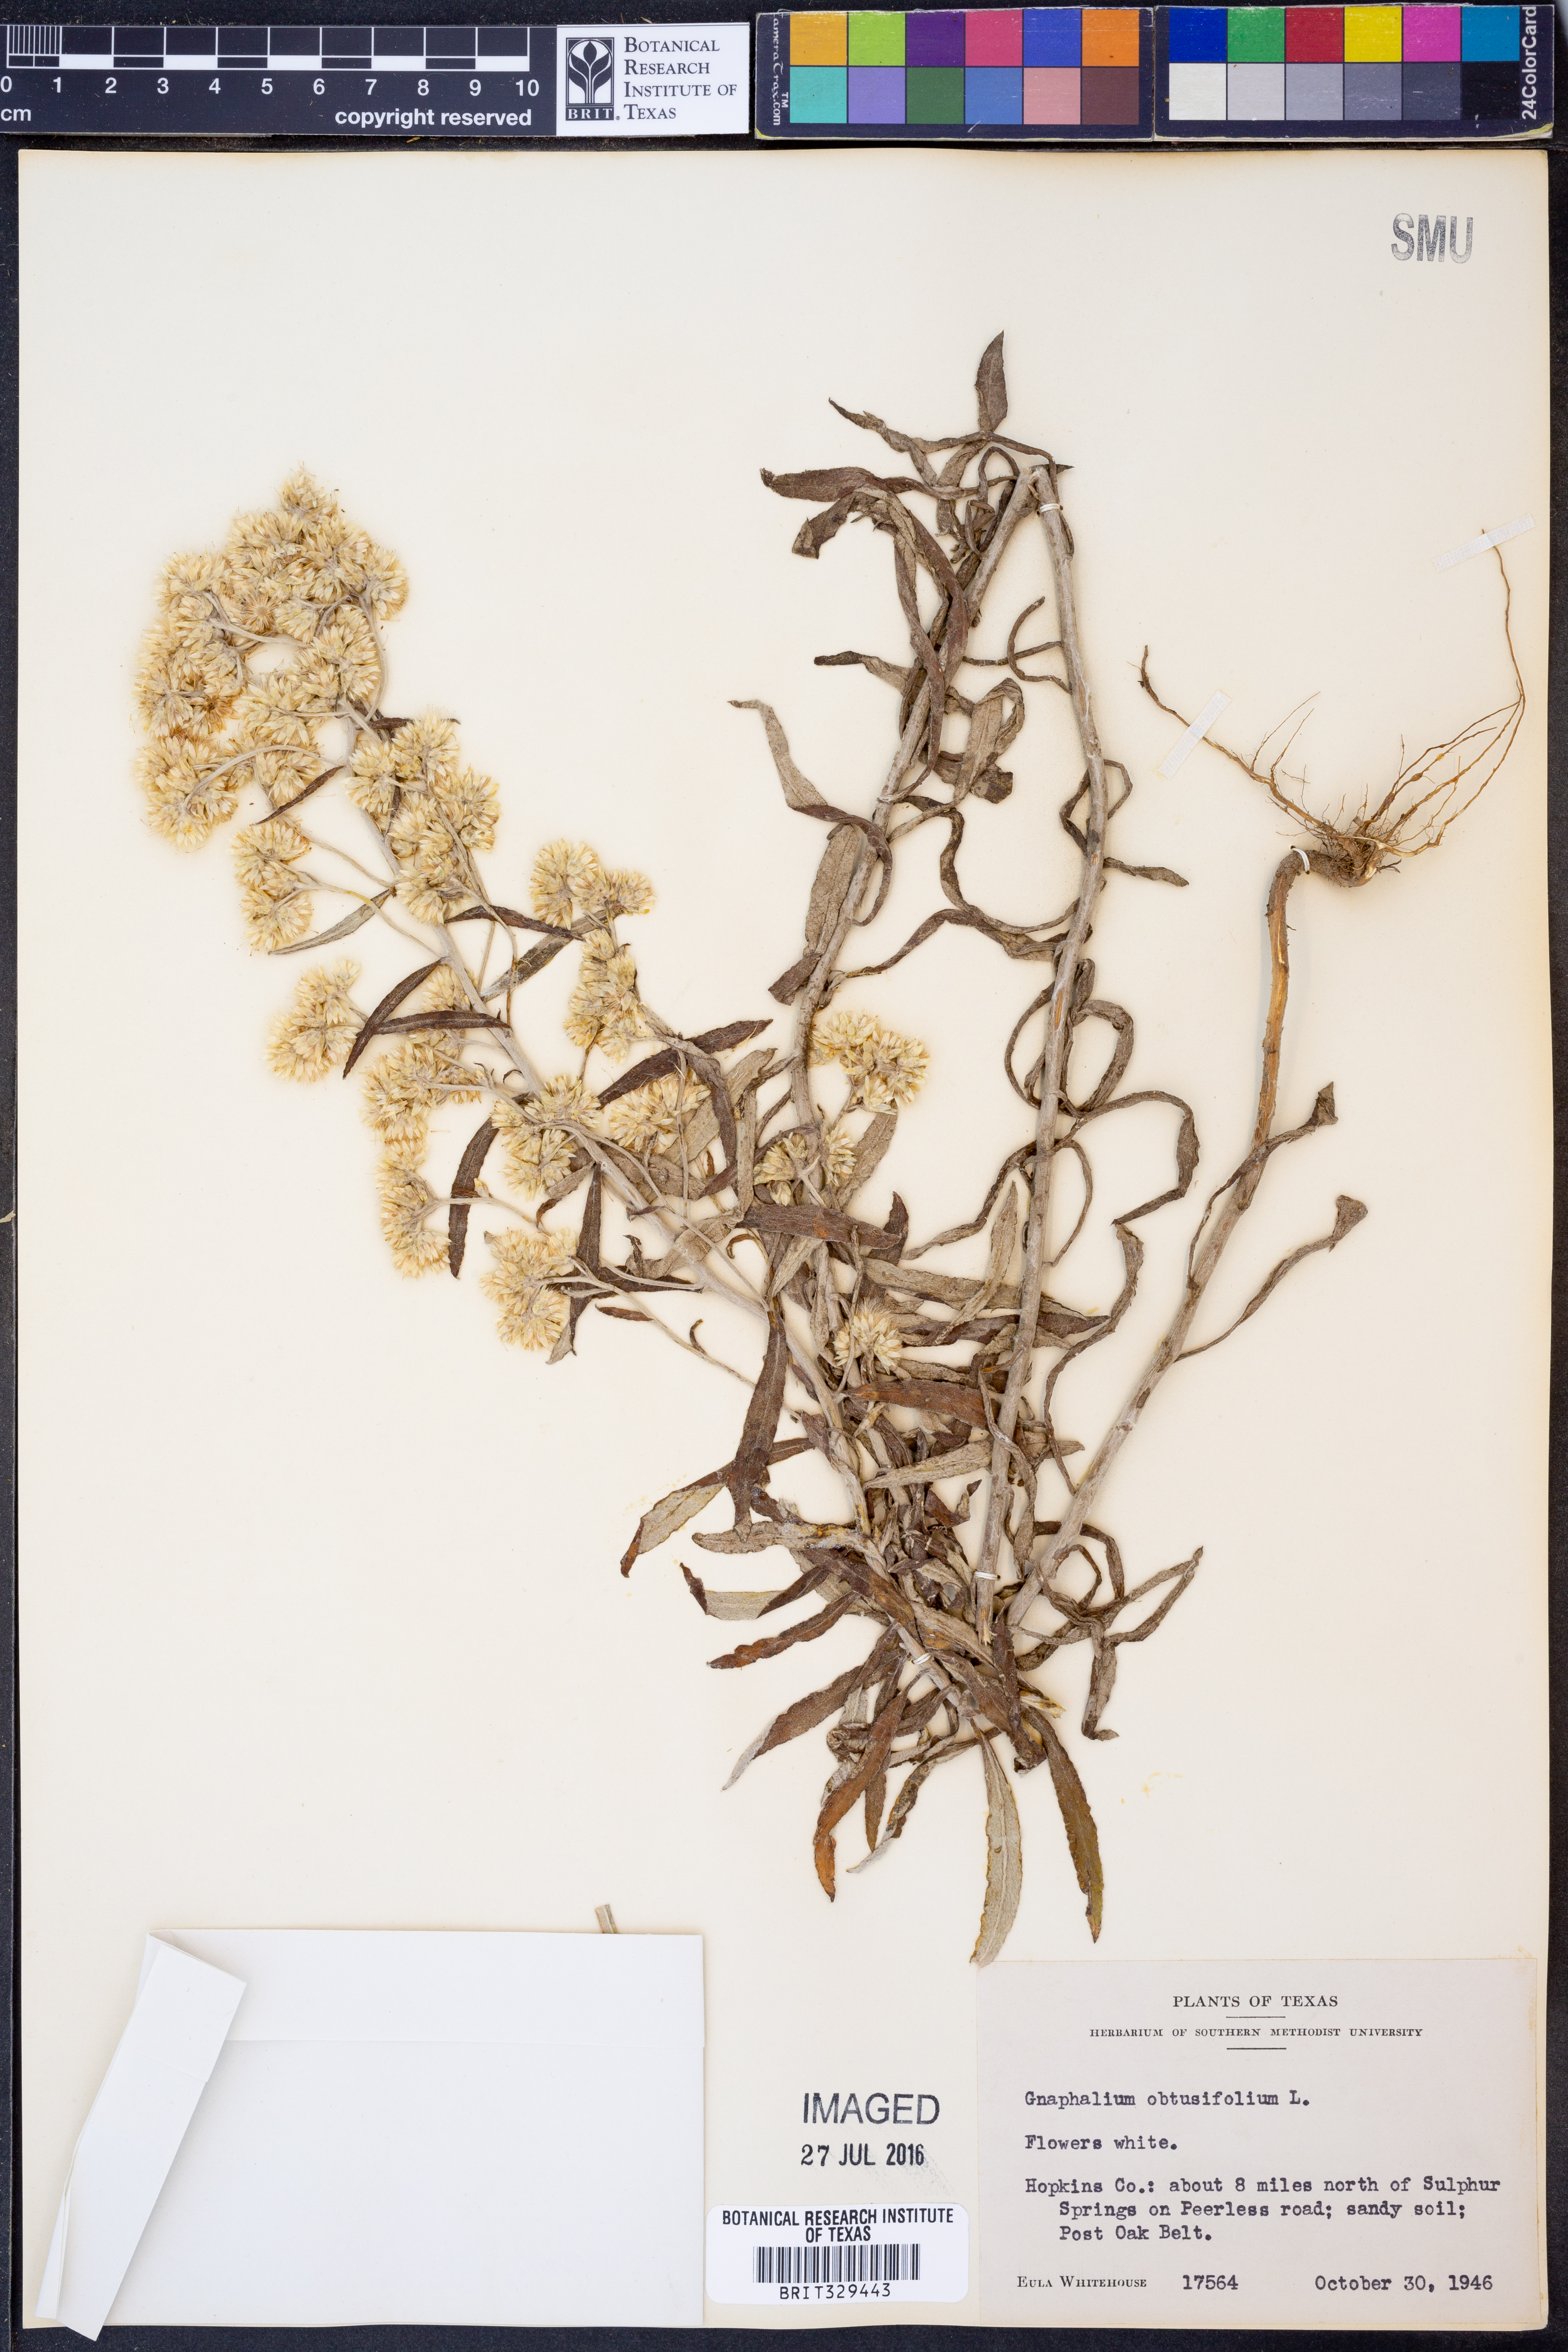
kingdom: Plantae
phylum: Tracheophyta
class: Magnoliopsida
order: Asterales
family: Asteraceae
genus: Pseudognaphalium
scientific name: Pseudognaphalium obtusifolium
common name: Eastern rabbit-tobacco
